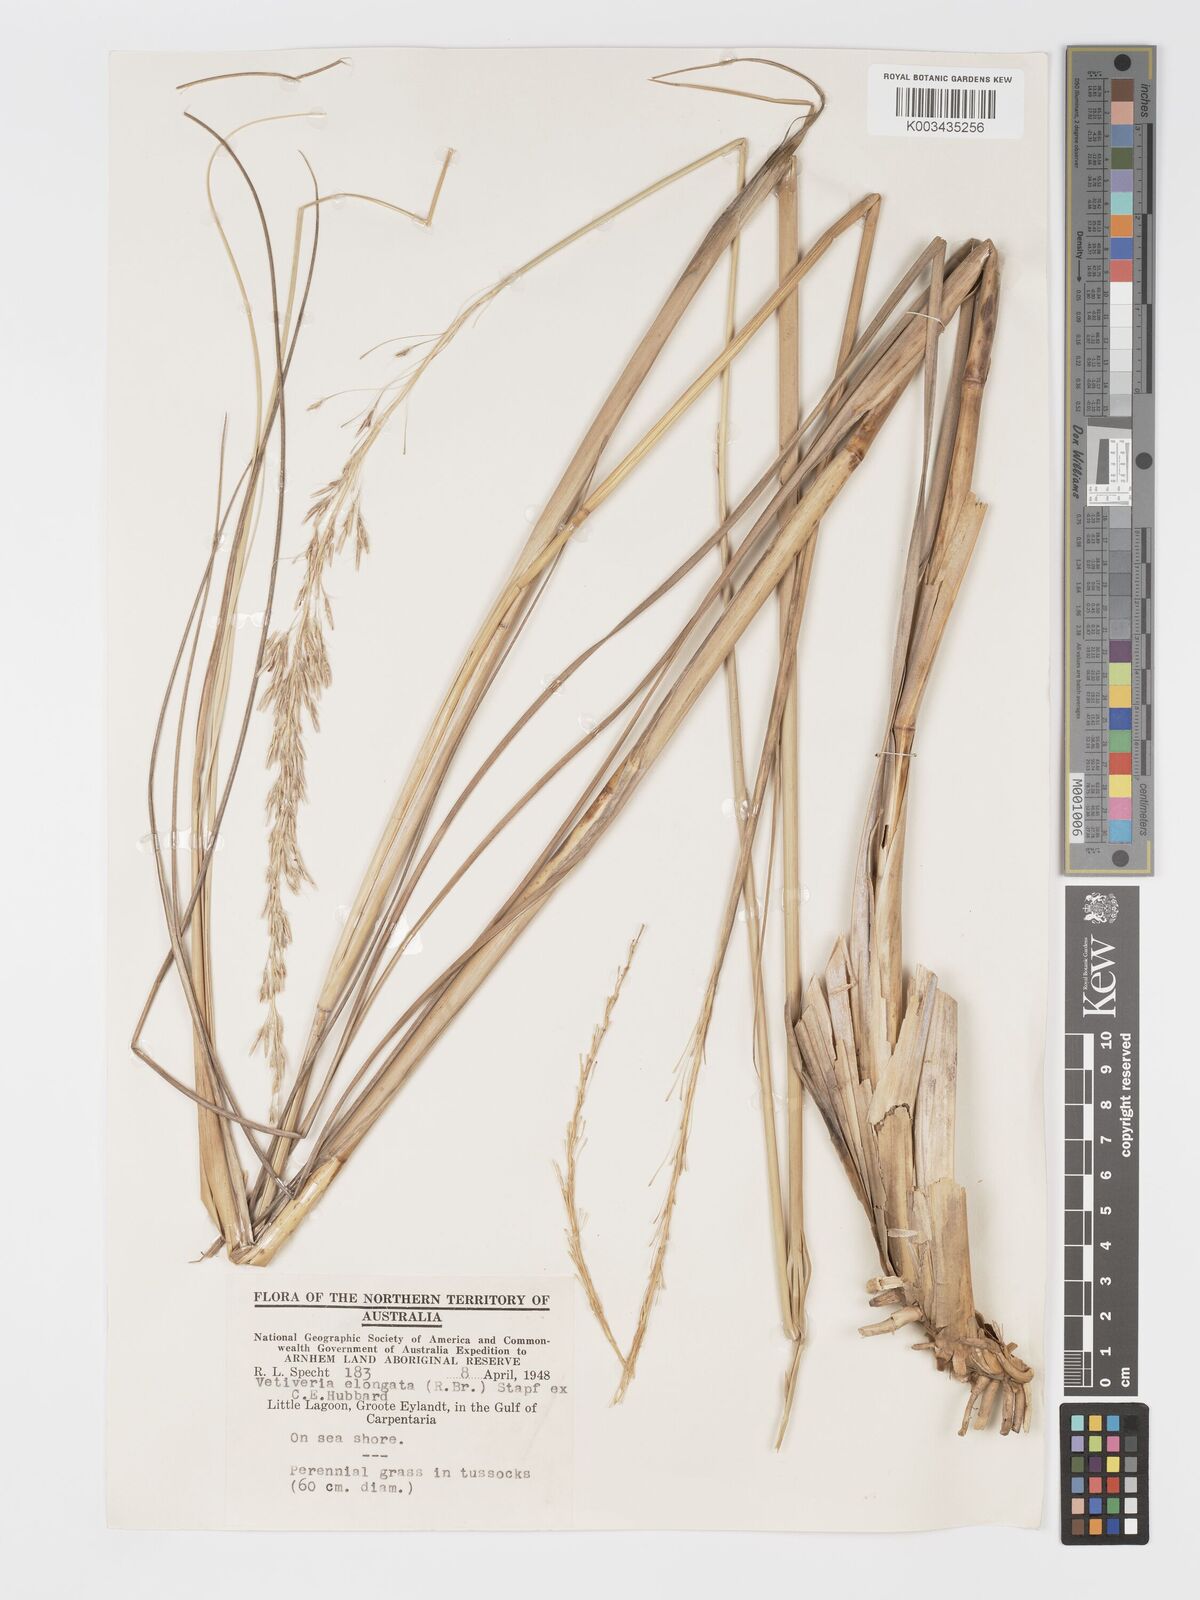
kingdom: Plantae
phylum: Tracheophyta
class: Liliopsida
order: Poales
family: Poaceae
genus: Chrysopogon
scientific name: Chrysopogon elongatus
